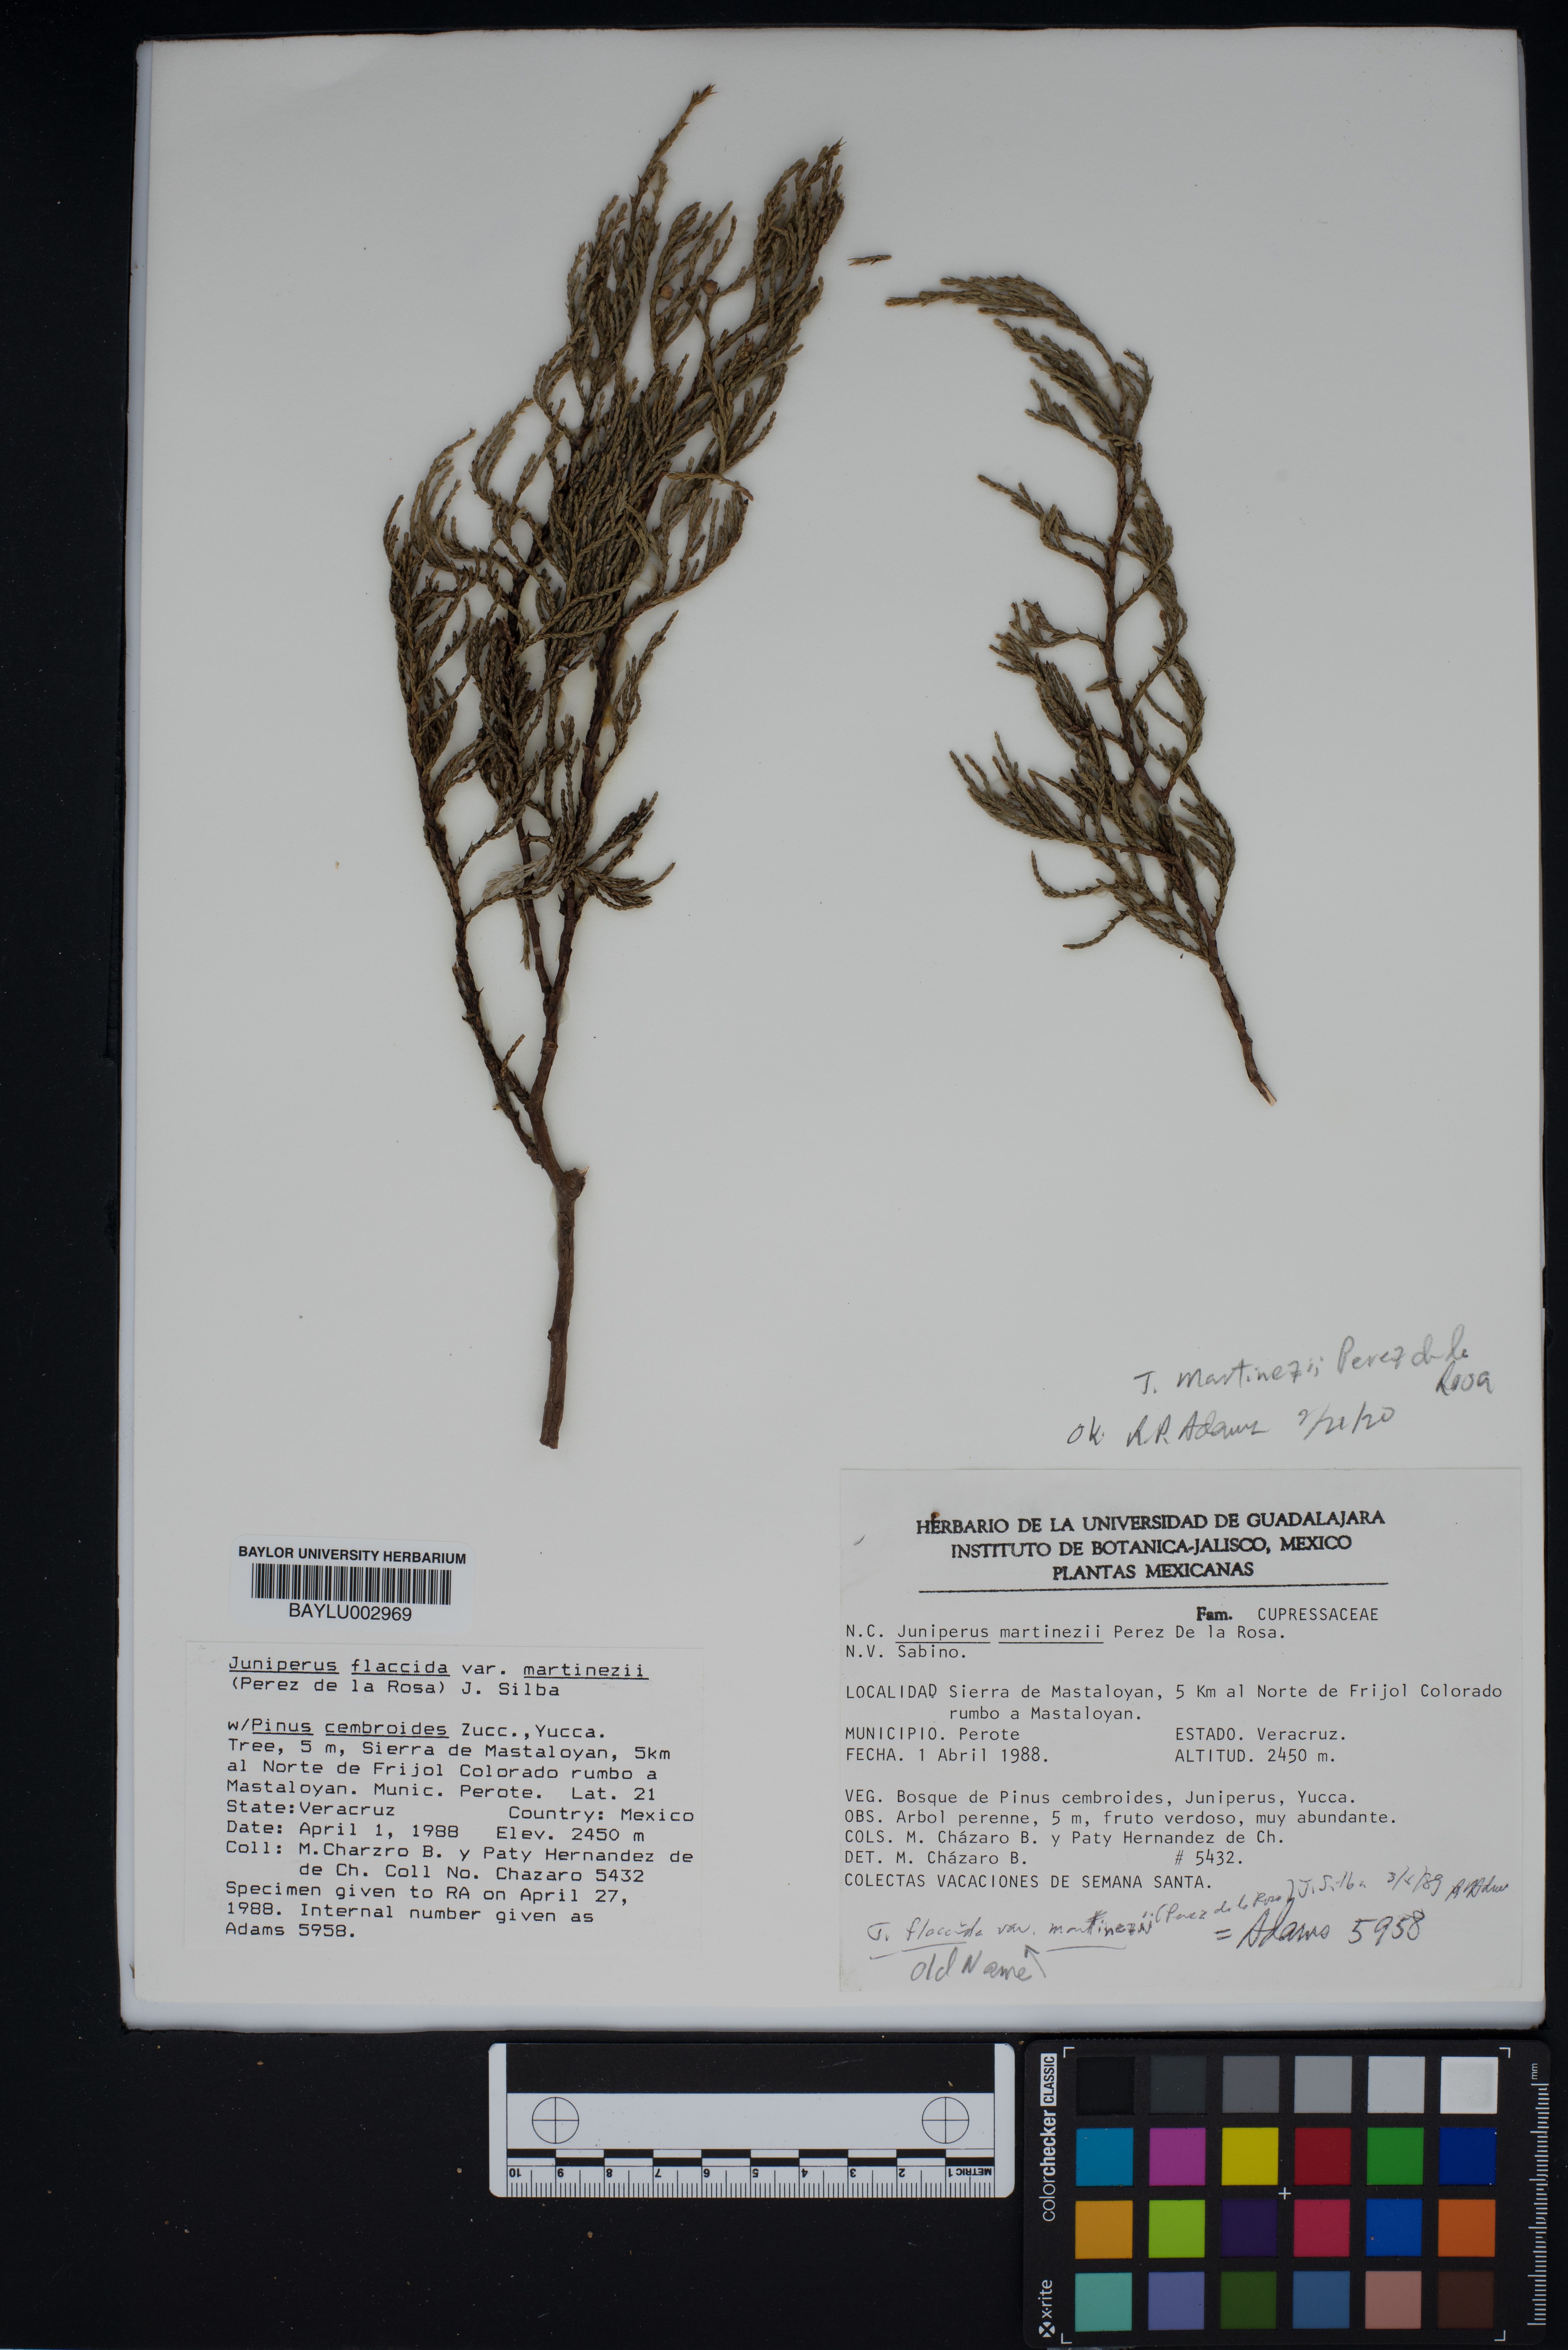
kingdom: Plantae
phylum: Tracheophyta
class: Pinopsida
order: Pinales
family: Cupressaceae
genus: Juniperus
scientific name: Juniperus flaccida
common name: Drooping juniper
